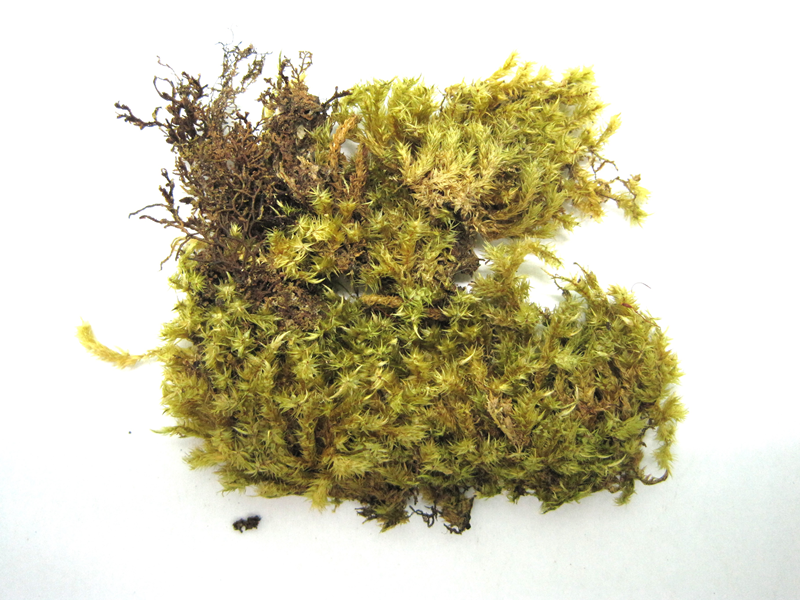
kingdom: Plantae
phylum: Bryophyta
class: Bryopsida
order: Hypnales
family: Sematophyllaceae
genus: Acroporium
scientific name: Acroporium hyalinum
